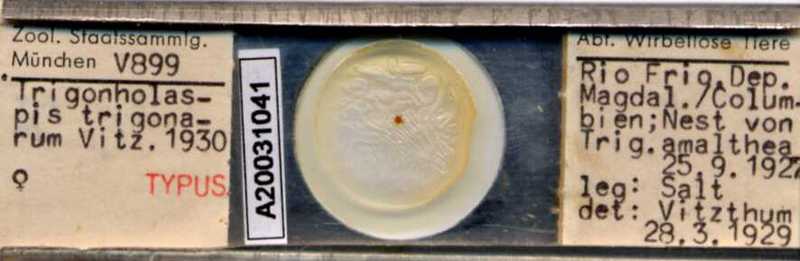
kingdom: Animalia
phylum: Arthropoda
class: Arachnida
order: Mesostigmata
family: Macrochelidae
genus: Trigonholaspis
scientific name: Trigonholaspis
